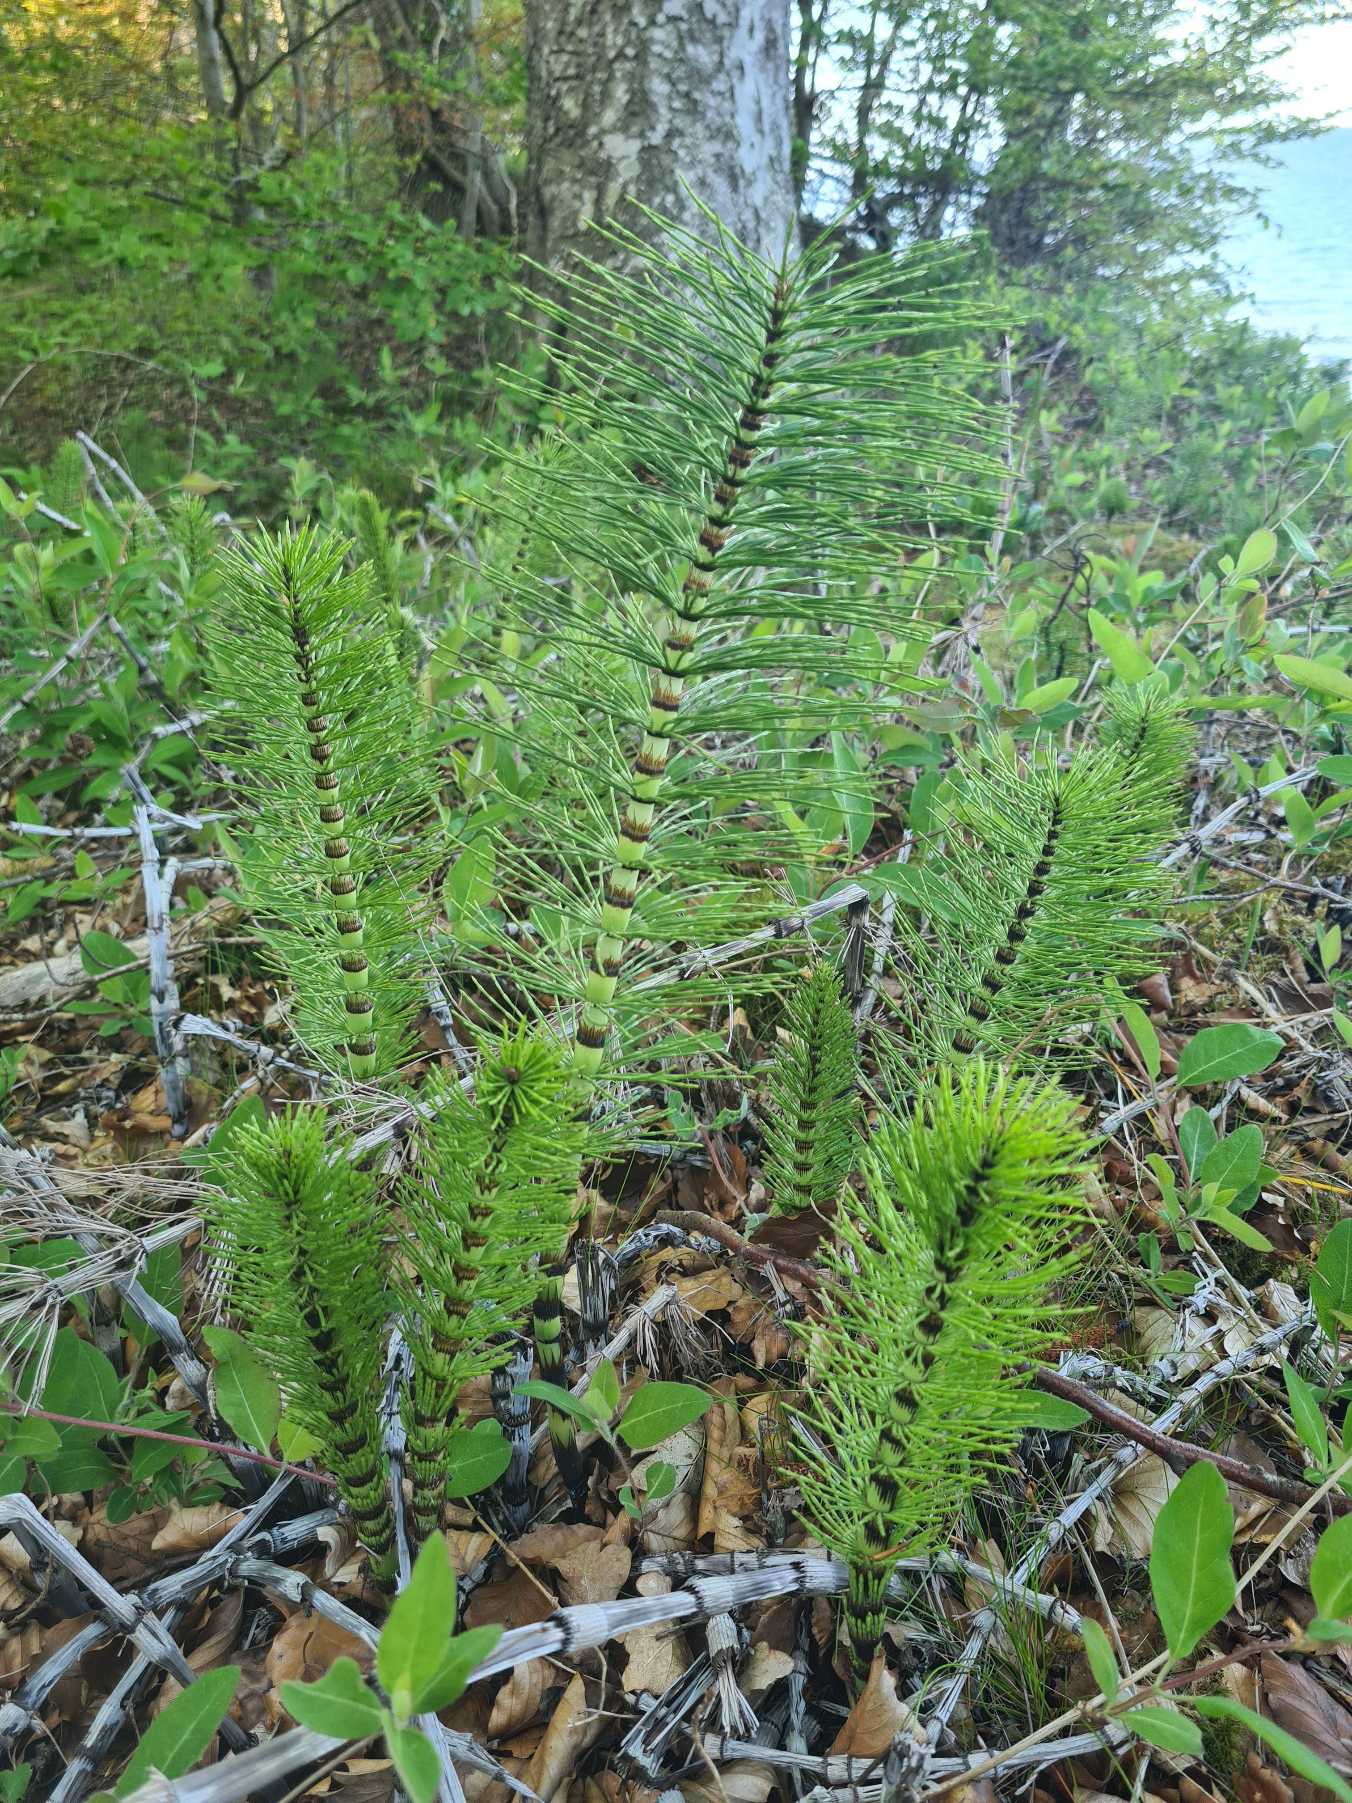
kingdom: Plantae
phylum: Tracheophyta
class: Polypodiopsida
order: Equisetales
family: Equisetaceae
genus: Equisetum
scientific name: Equisetum telmateia
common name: Elfenbens-padderok
